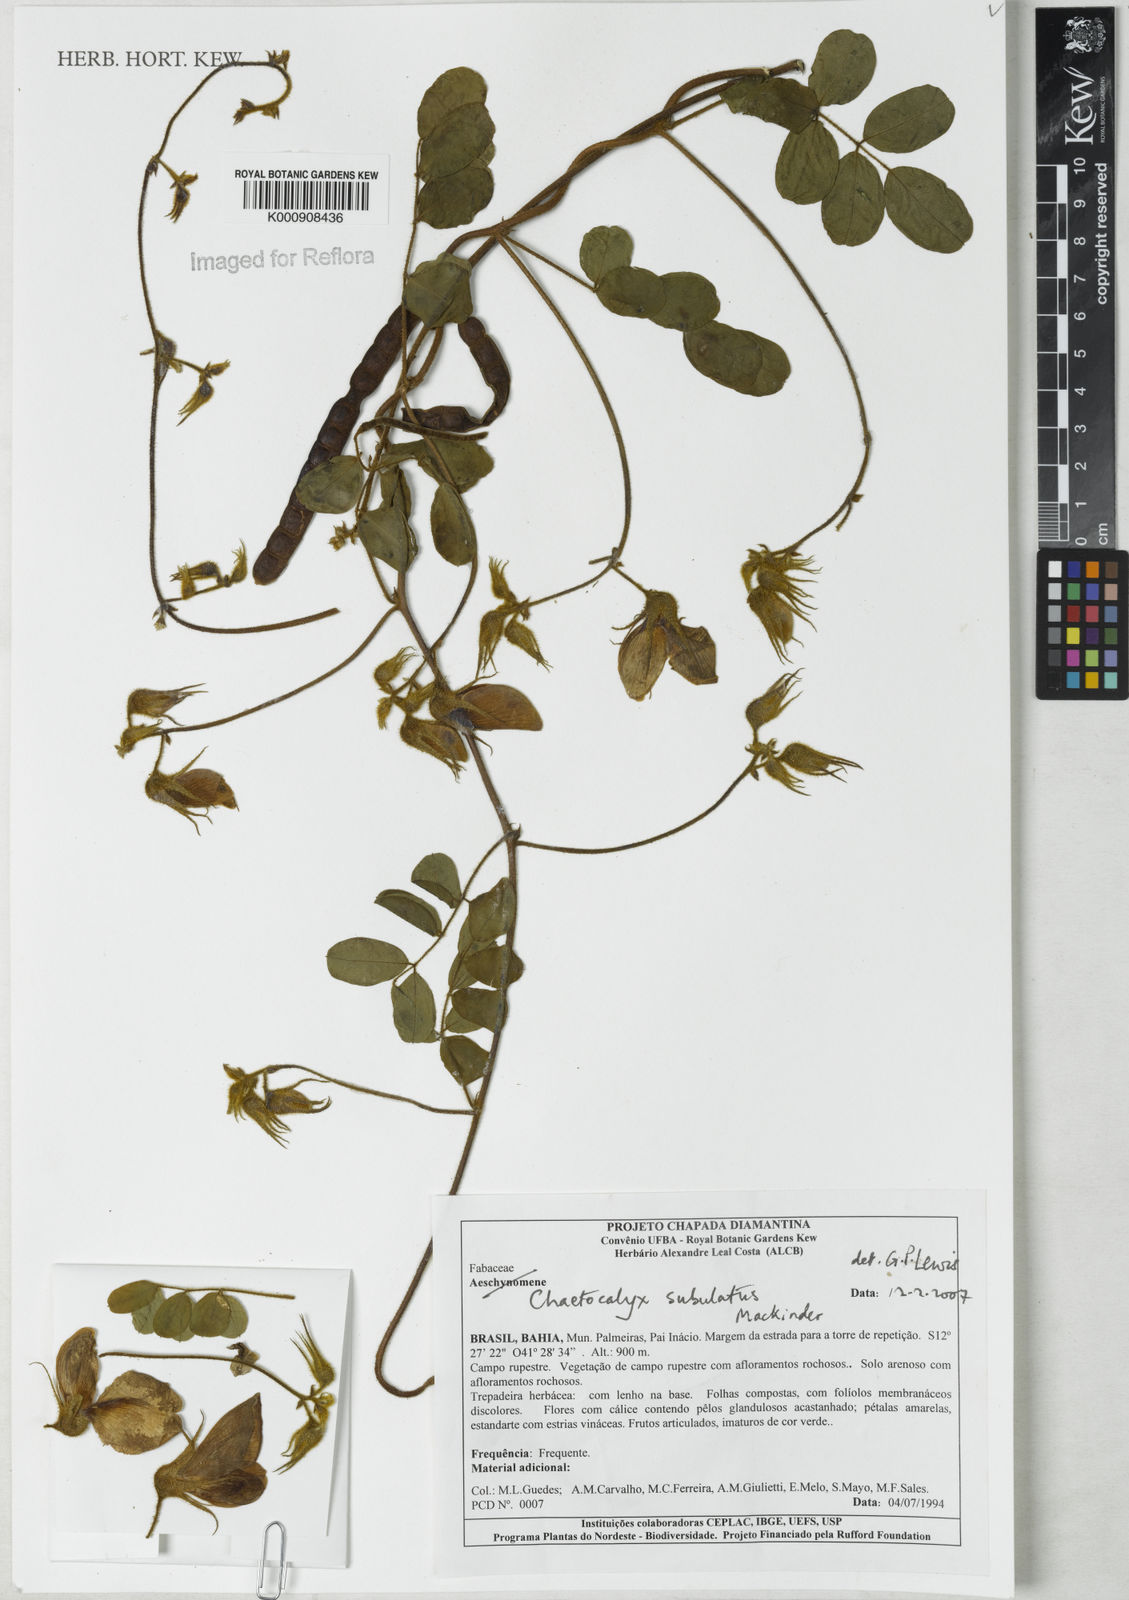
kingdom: Plantae
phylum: Tracheophyta
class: Magnoliopsida
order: Fabales
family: Fabaceae
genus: Nissolia
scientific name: Nissolia subulata
